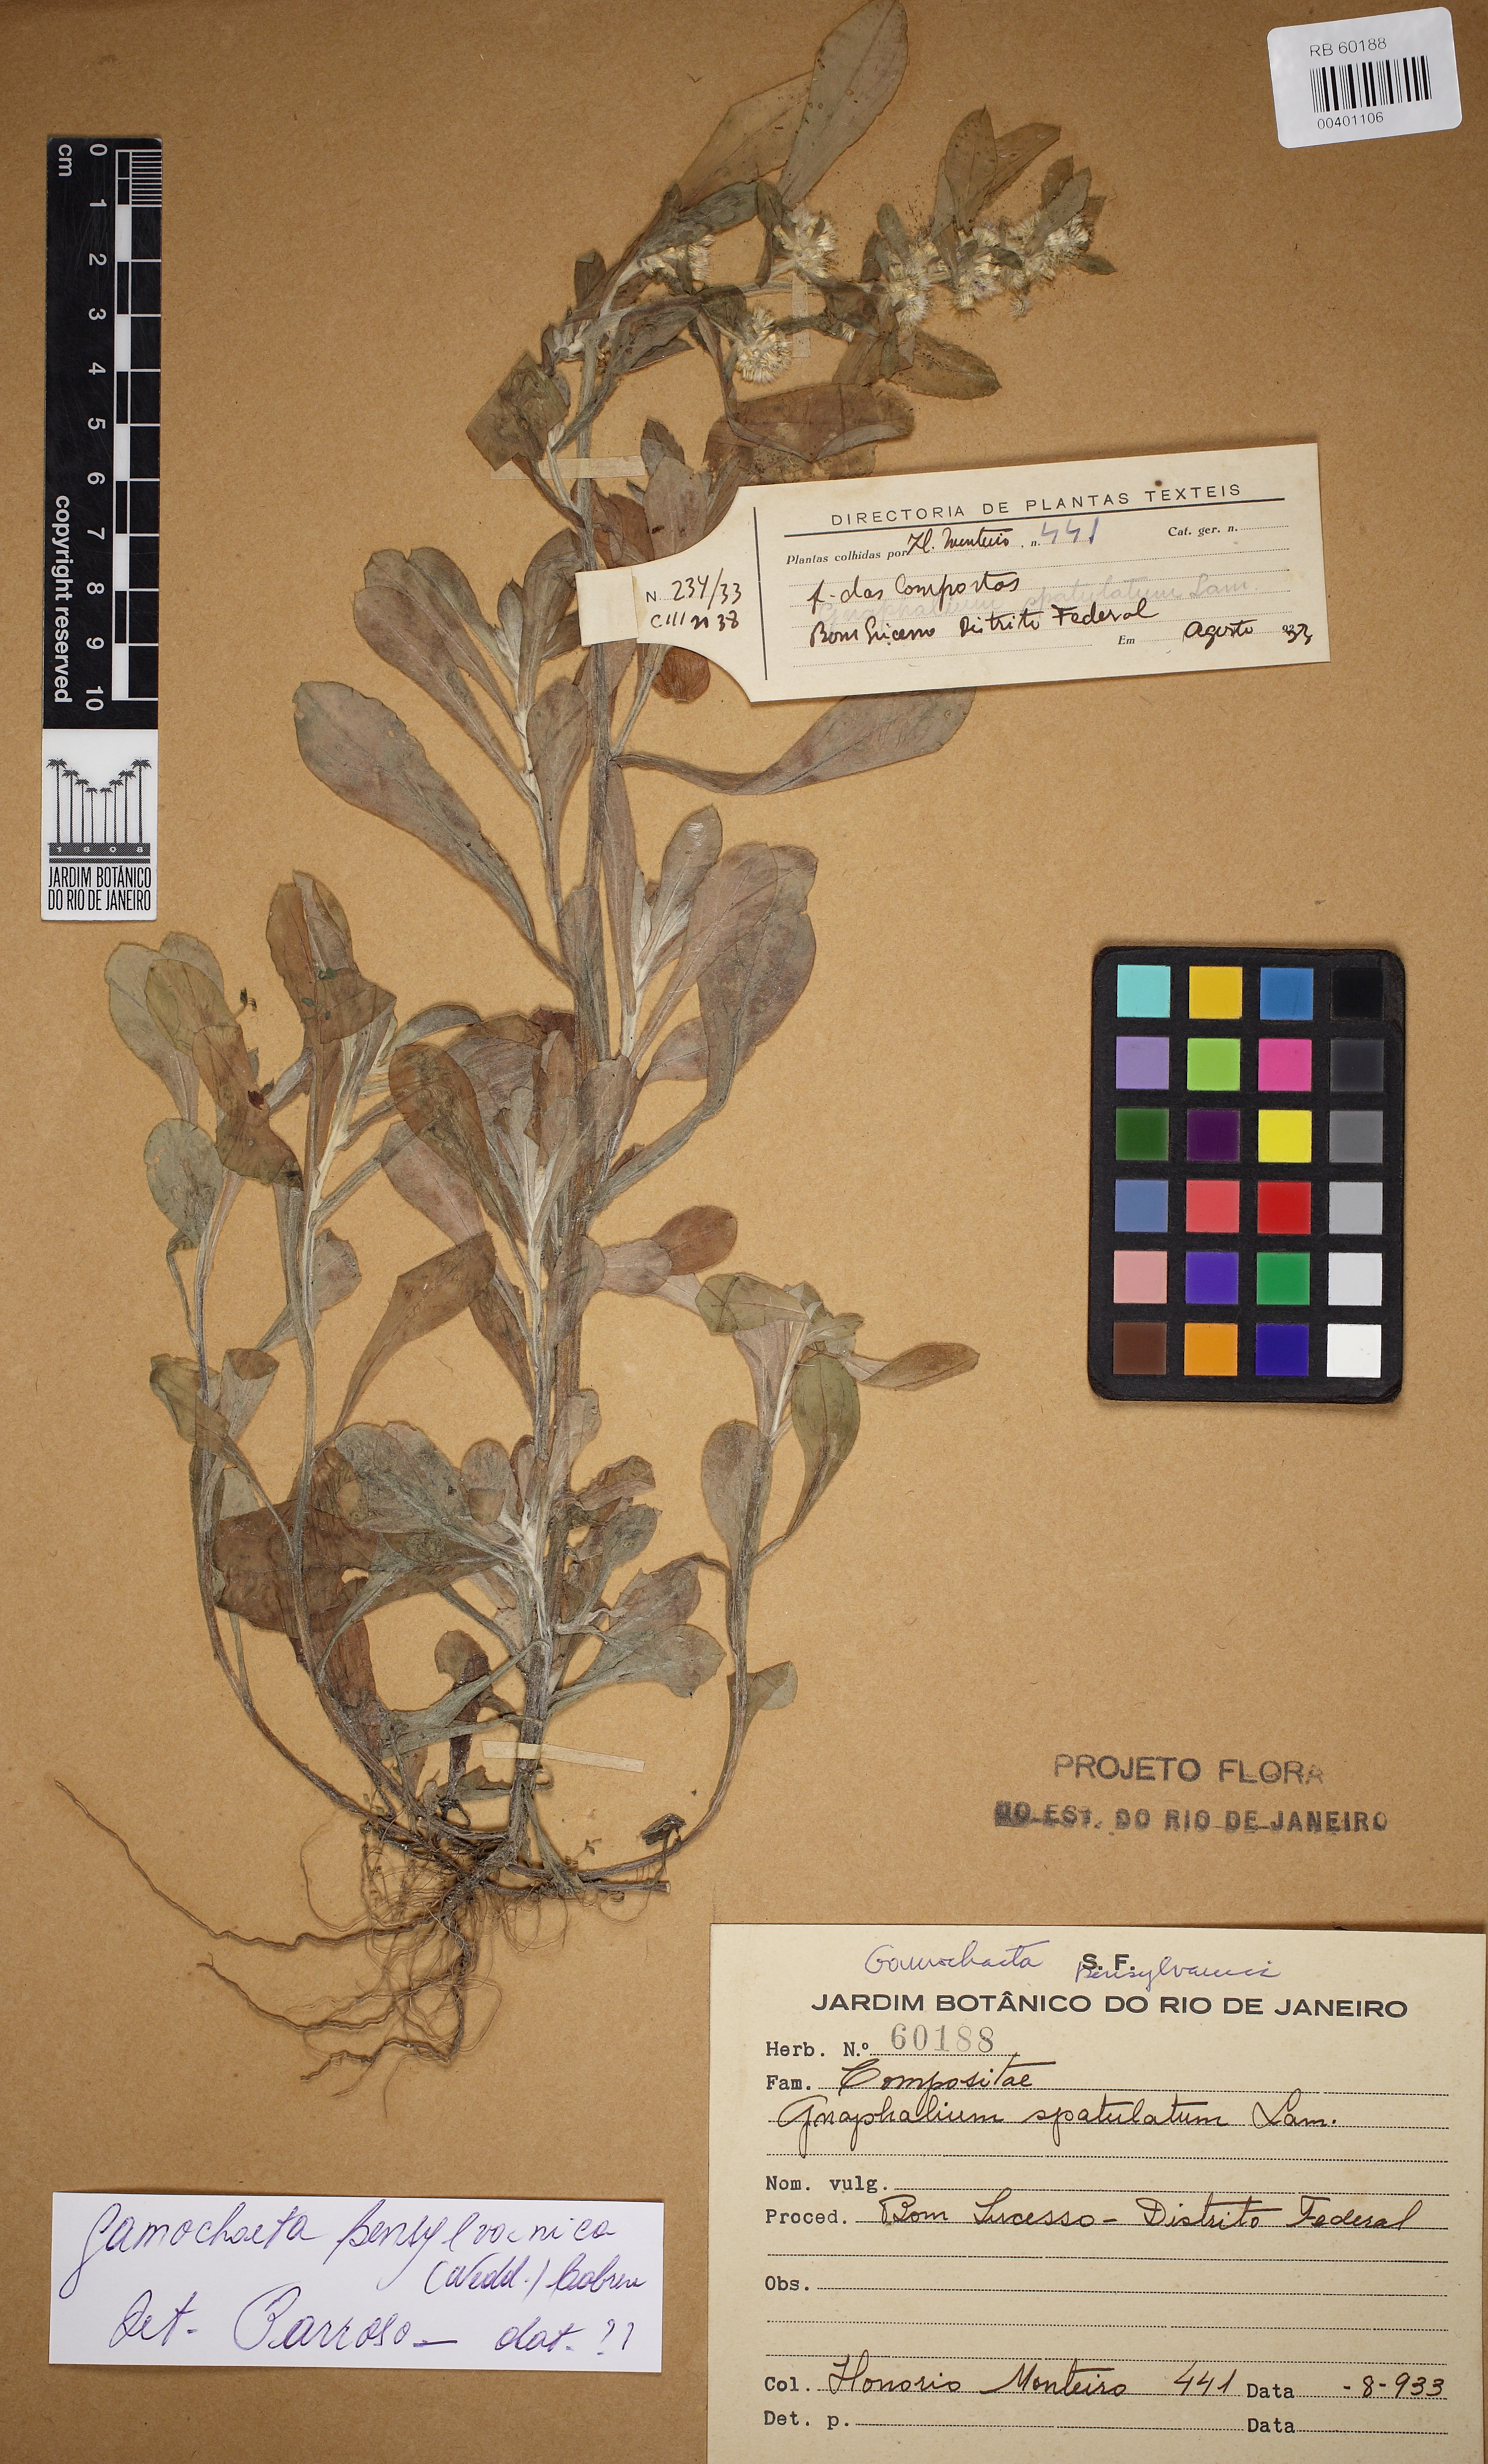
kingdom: Plantae
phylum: Tracheophyta
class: Magnoliopsida
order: Asterales
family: Asteraceae
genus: Gamochaeta
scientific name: Gamochaeta pensylvanica
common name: Pennsylvania everlasting
